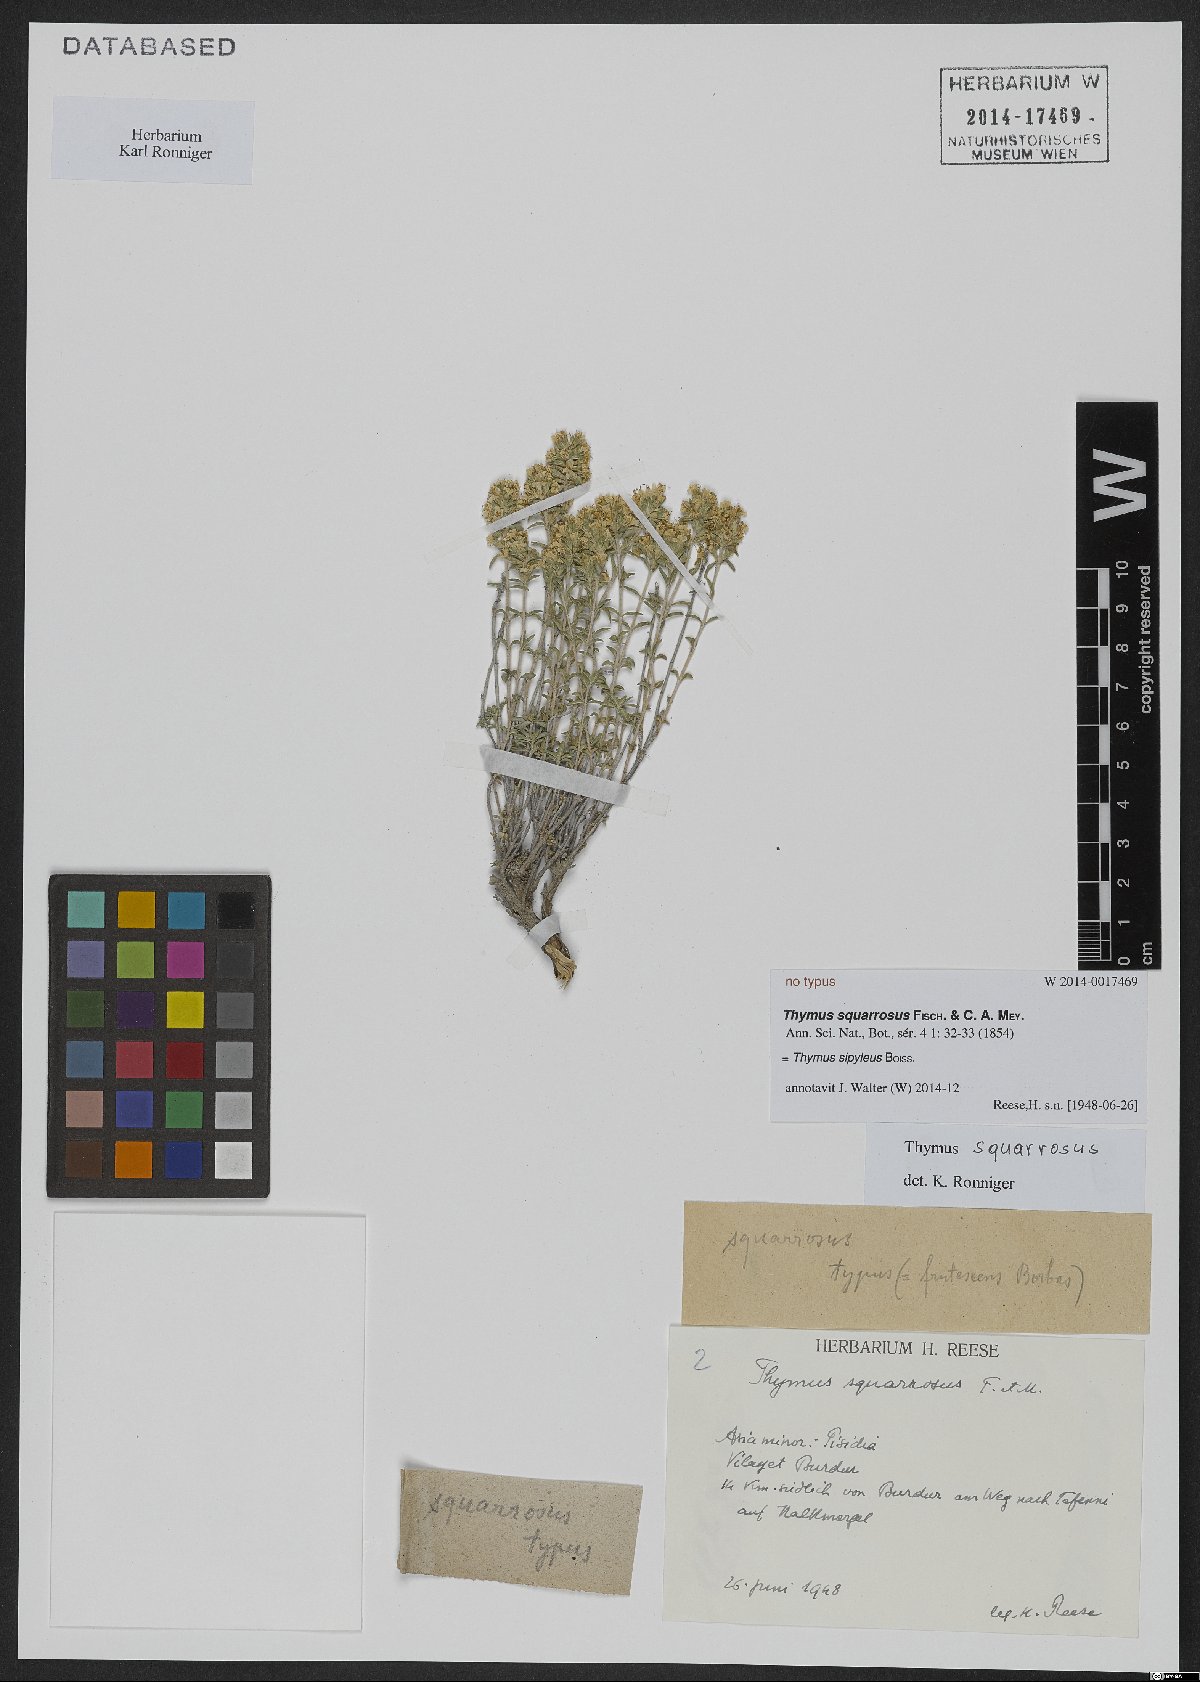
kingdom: Plantae
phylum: Tracheophyta
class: Magnoliopsida
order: Lamiales
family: Lamiaceae
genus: Thymus
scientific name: Thymus sipyleus
